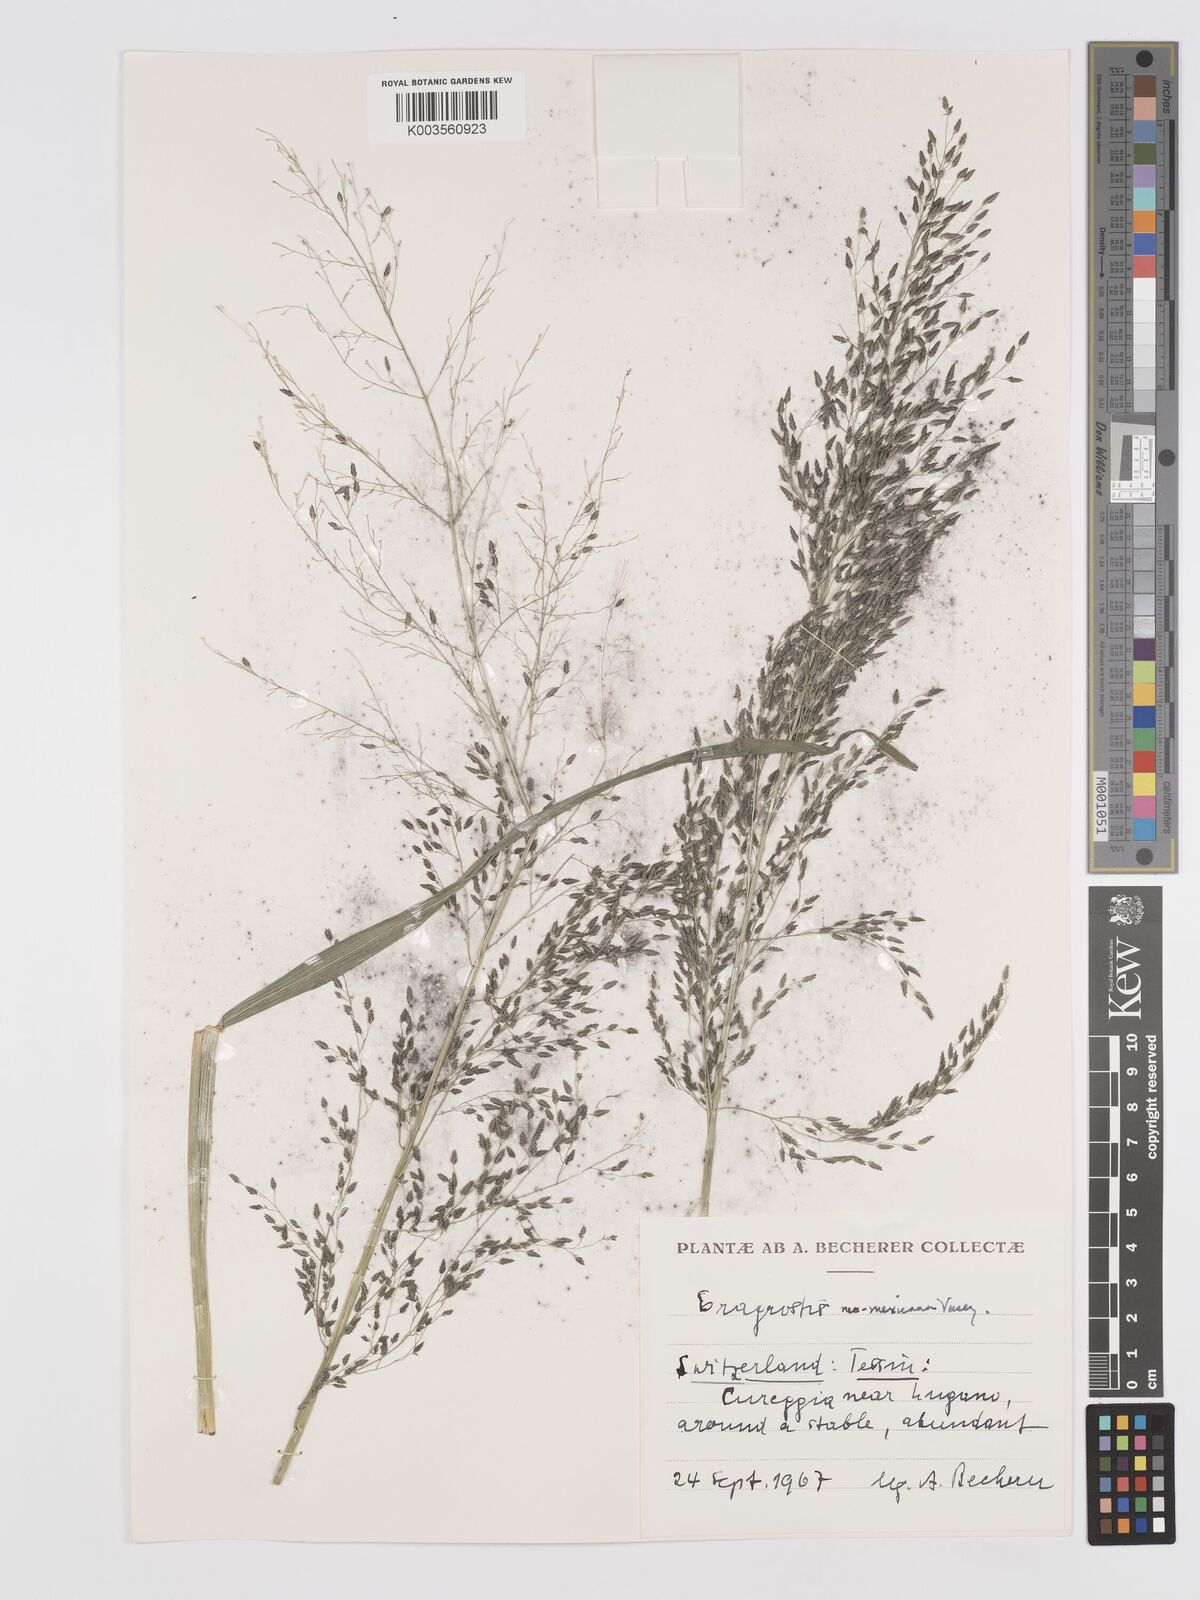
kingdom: Plantae
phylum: Tracheophyta
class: Liliopsida
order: Poales
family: Poaceae
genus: Eragrostis
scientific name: Eragrostis mexicana
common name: Mexican love grass
